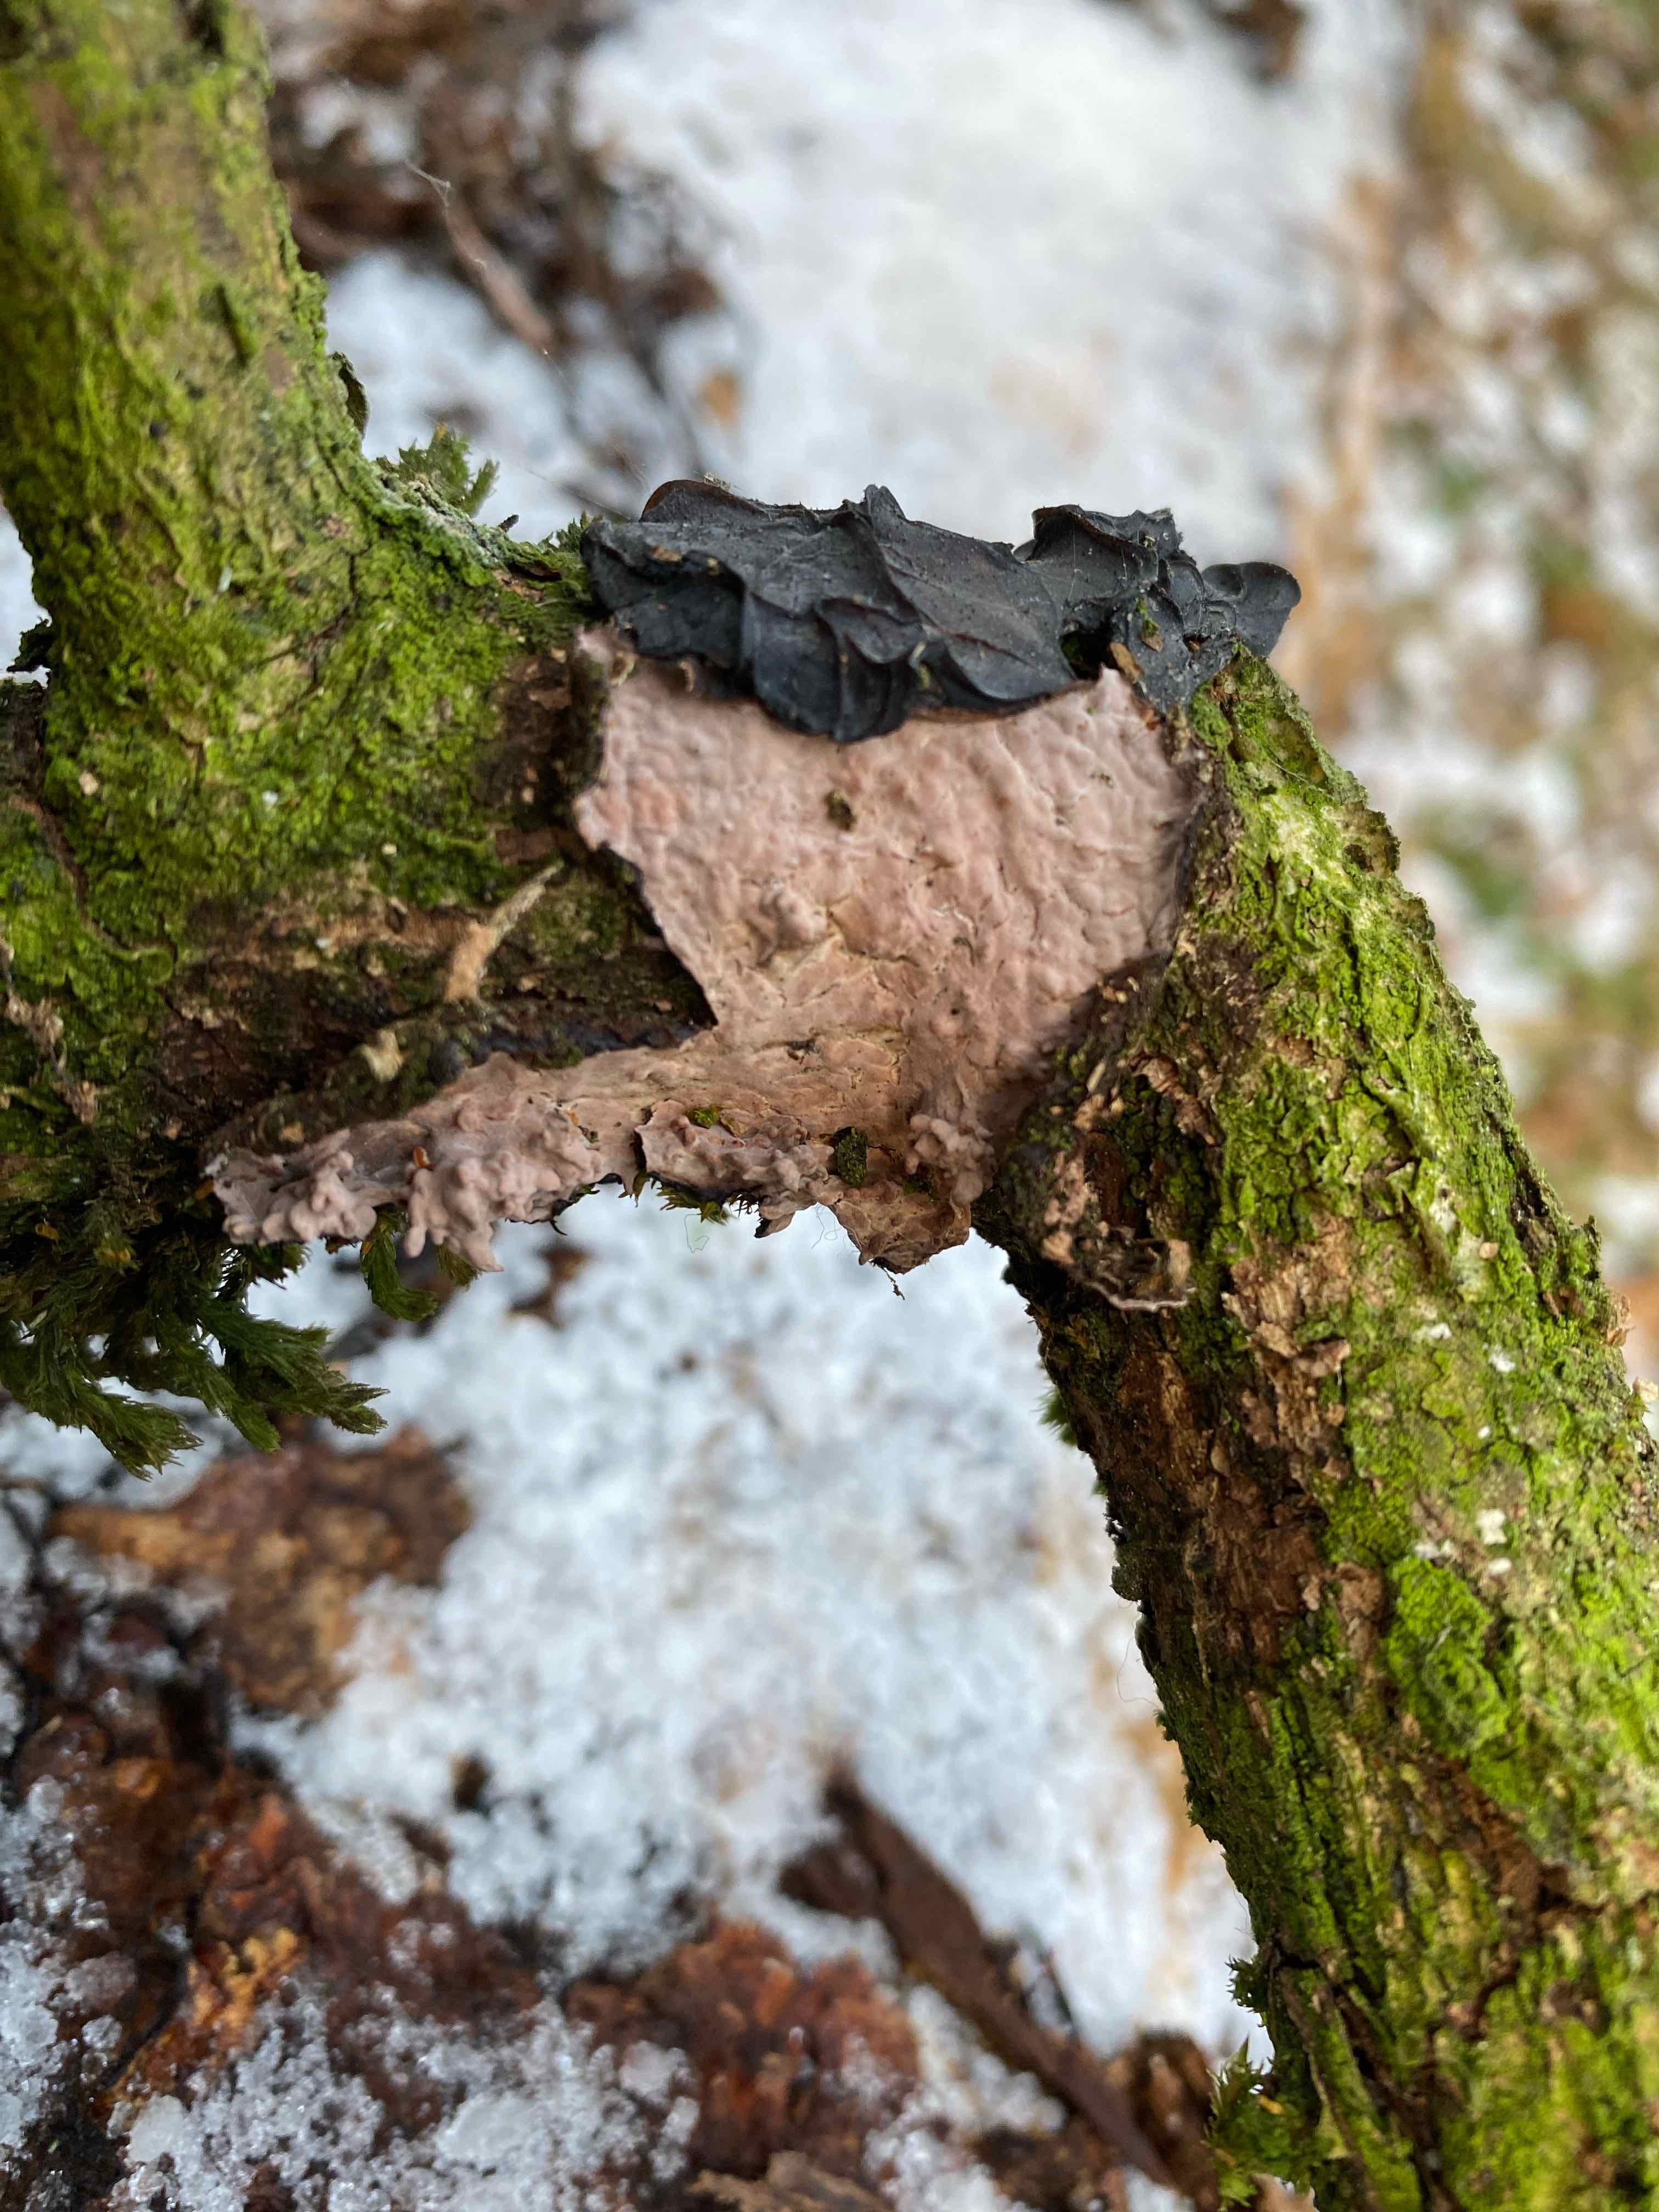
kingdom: Fungi
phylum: Basidiomycota
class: Agaricomycetes
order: Russulales
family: Peniophoraceae
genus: Peniophora
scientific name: Peniophora quercina
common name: ege-voksskind
